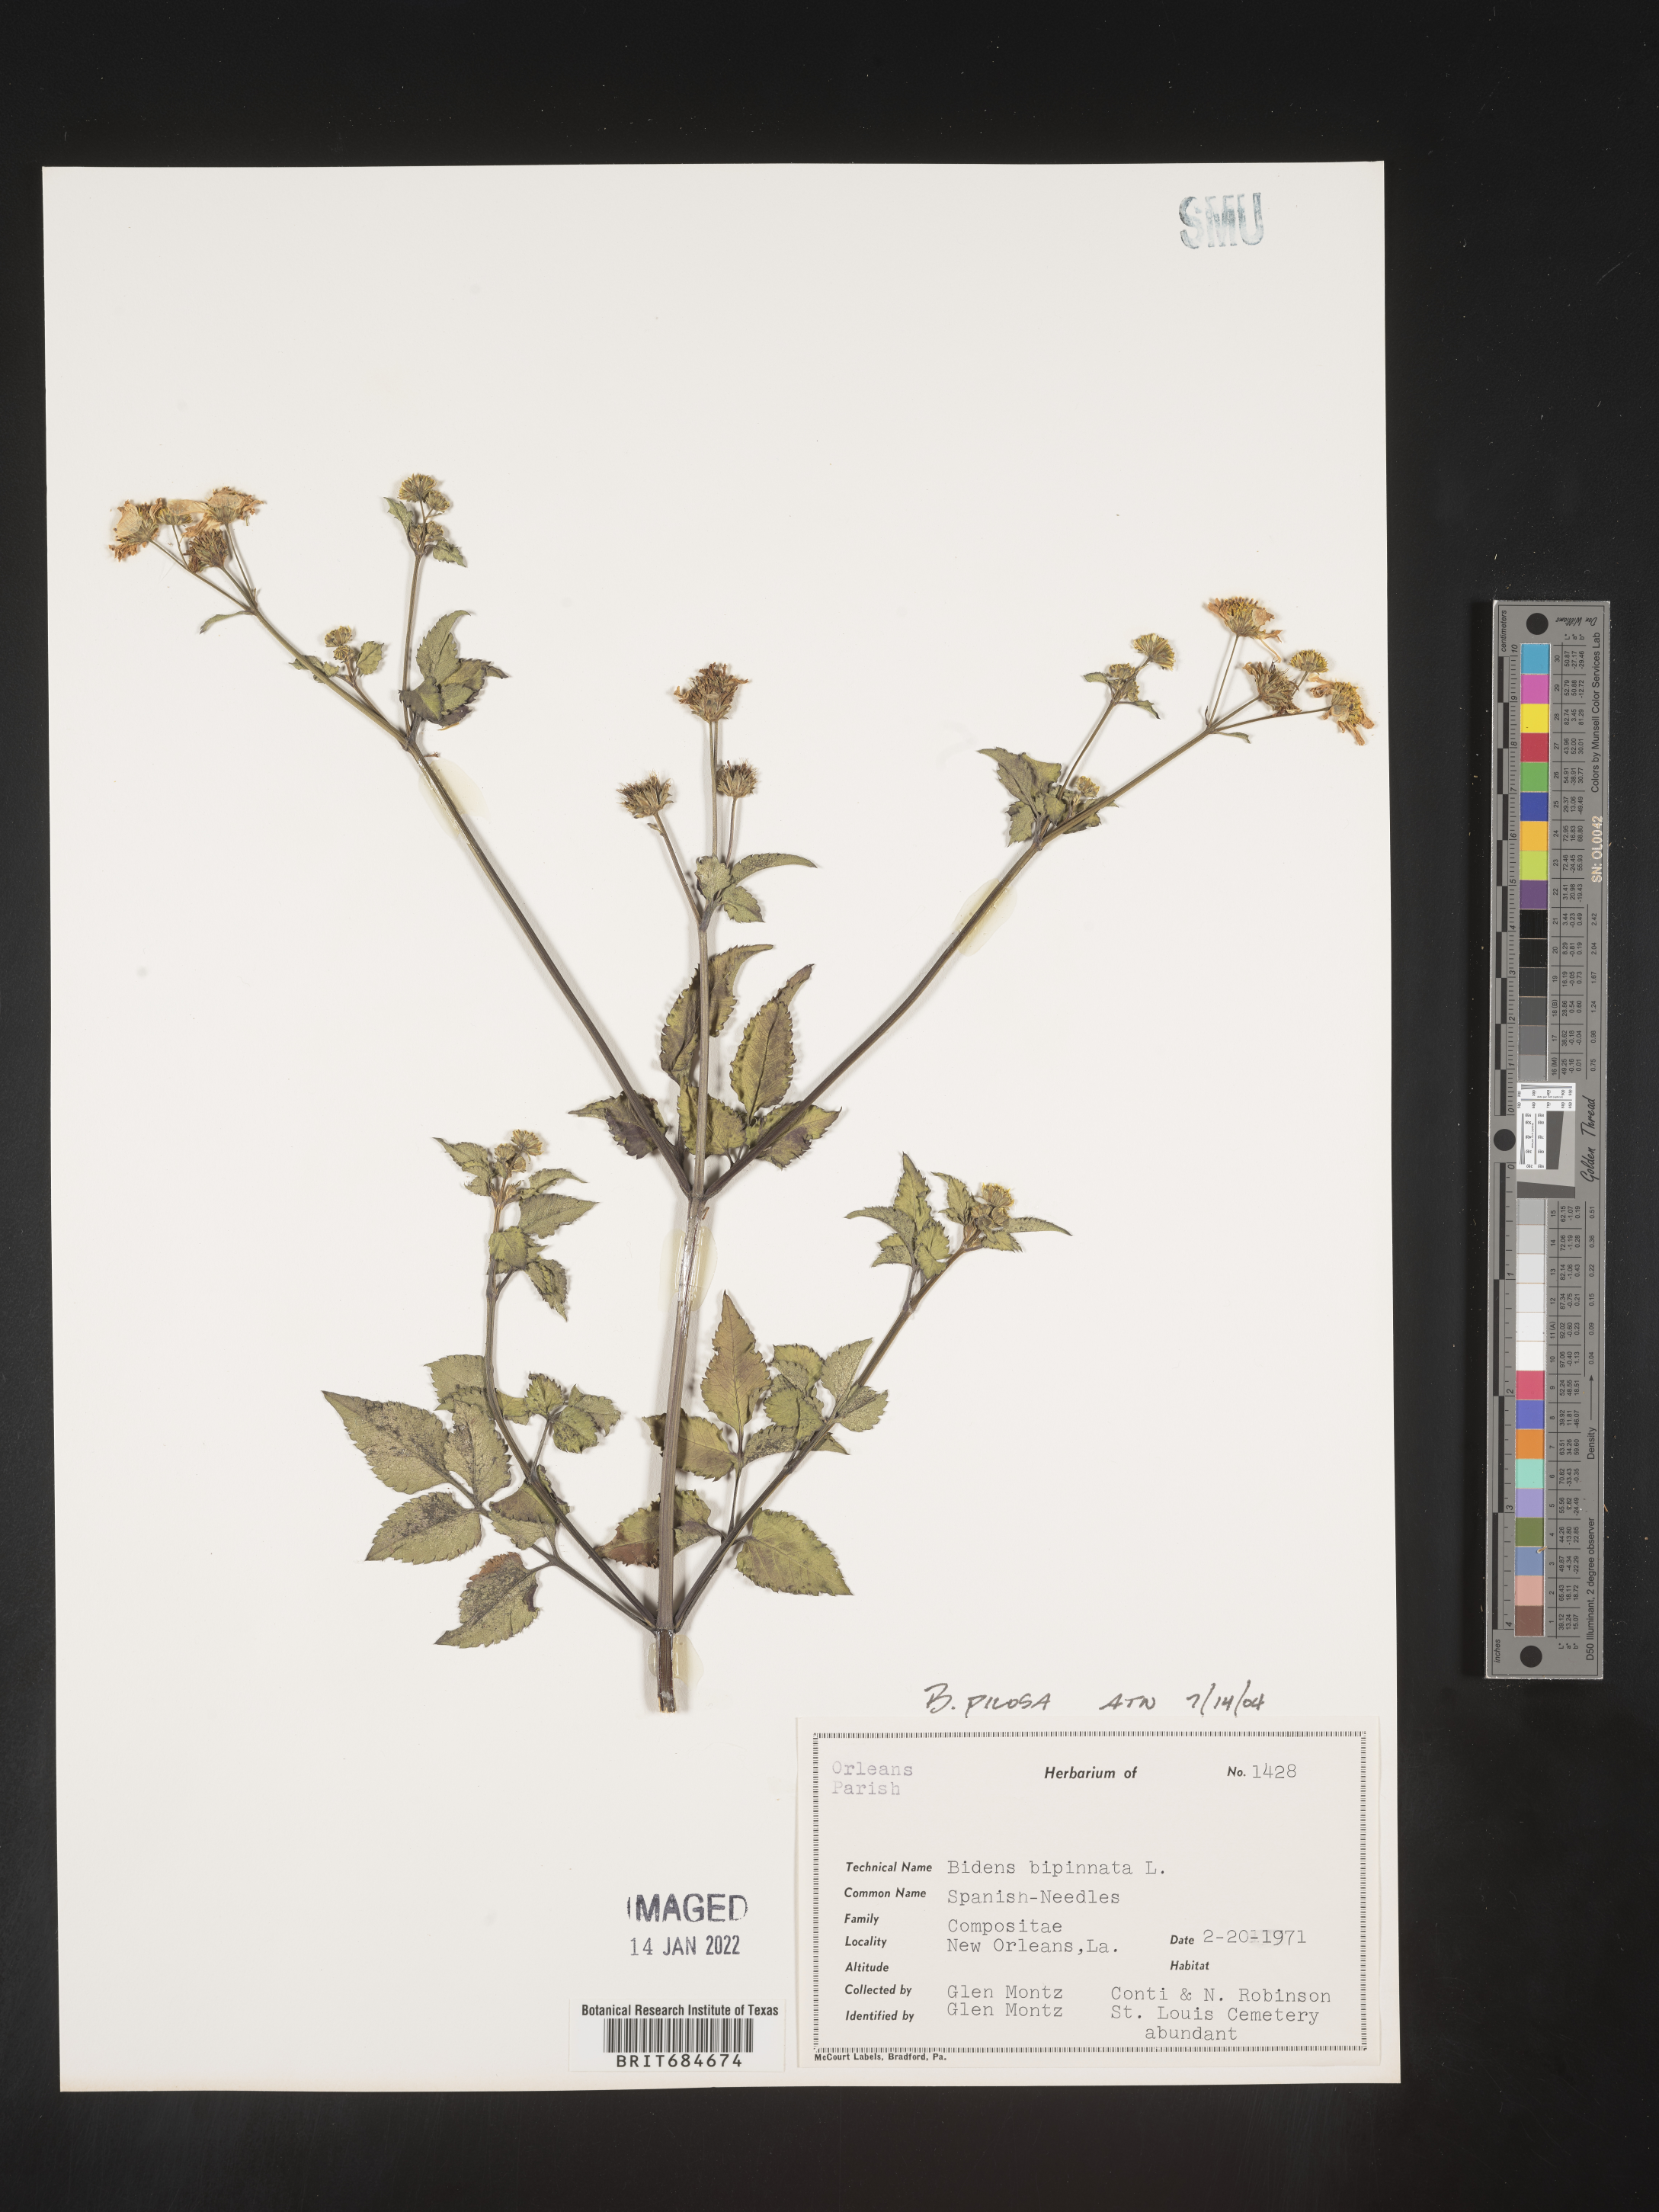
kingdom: Plantae
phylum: Tracheophyta
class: Magnoliopsida
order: Asterales
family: Asteraceae
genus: Bidens
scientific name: Bidens pilosa
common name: Black-jack
